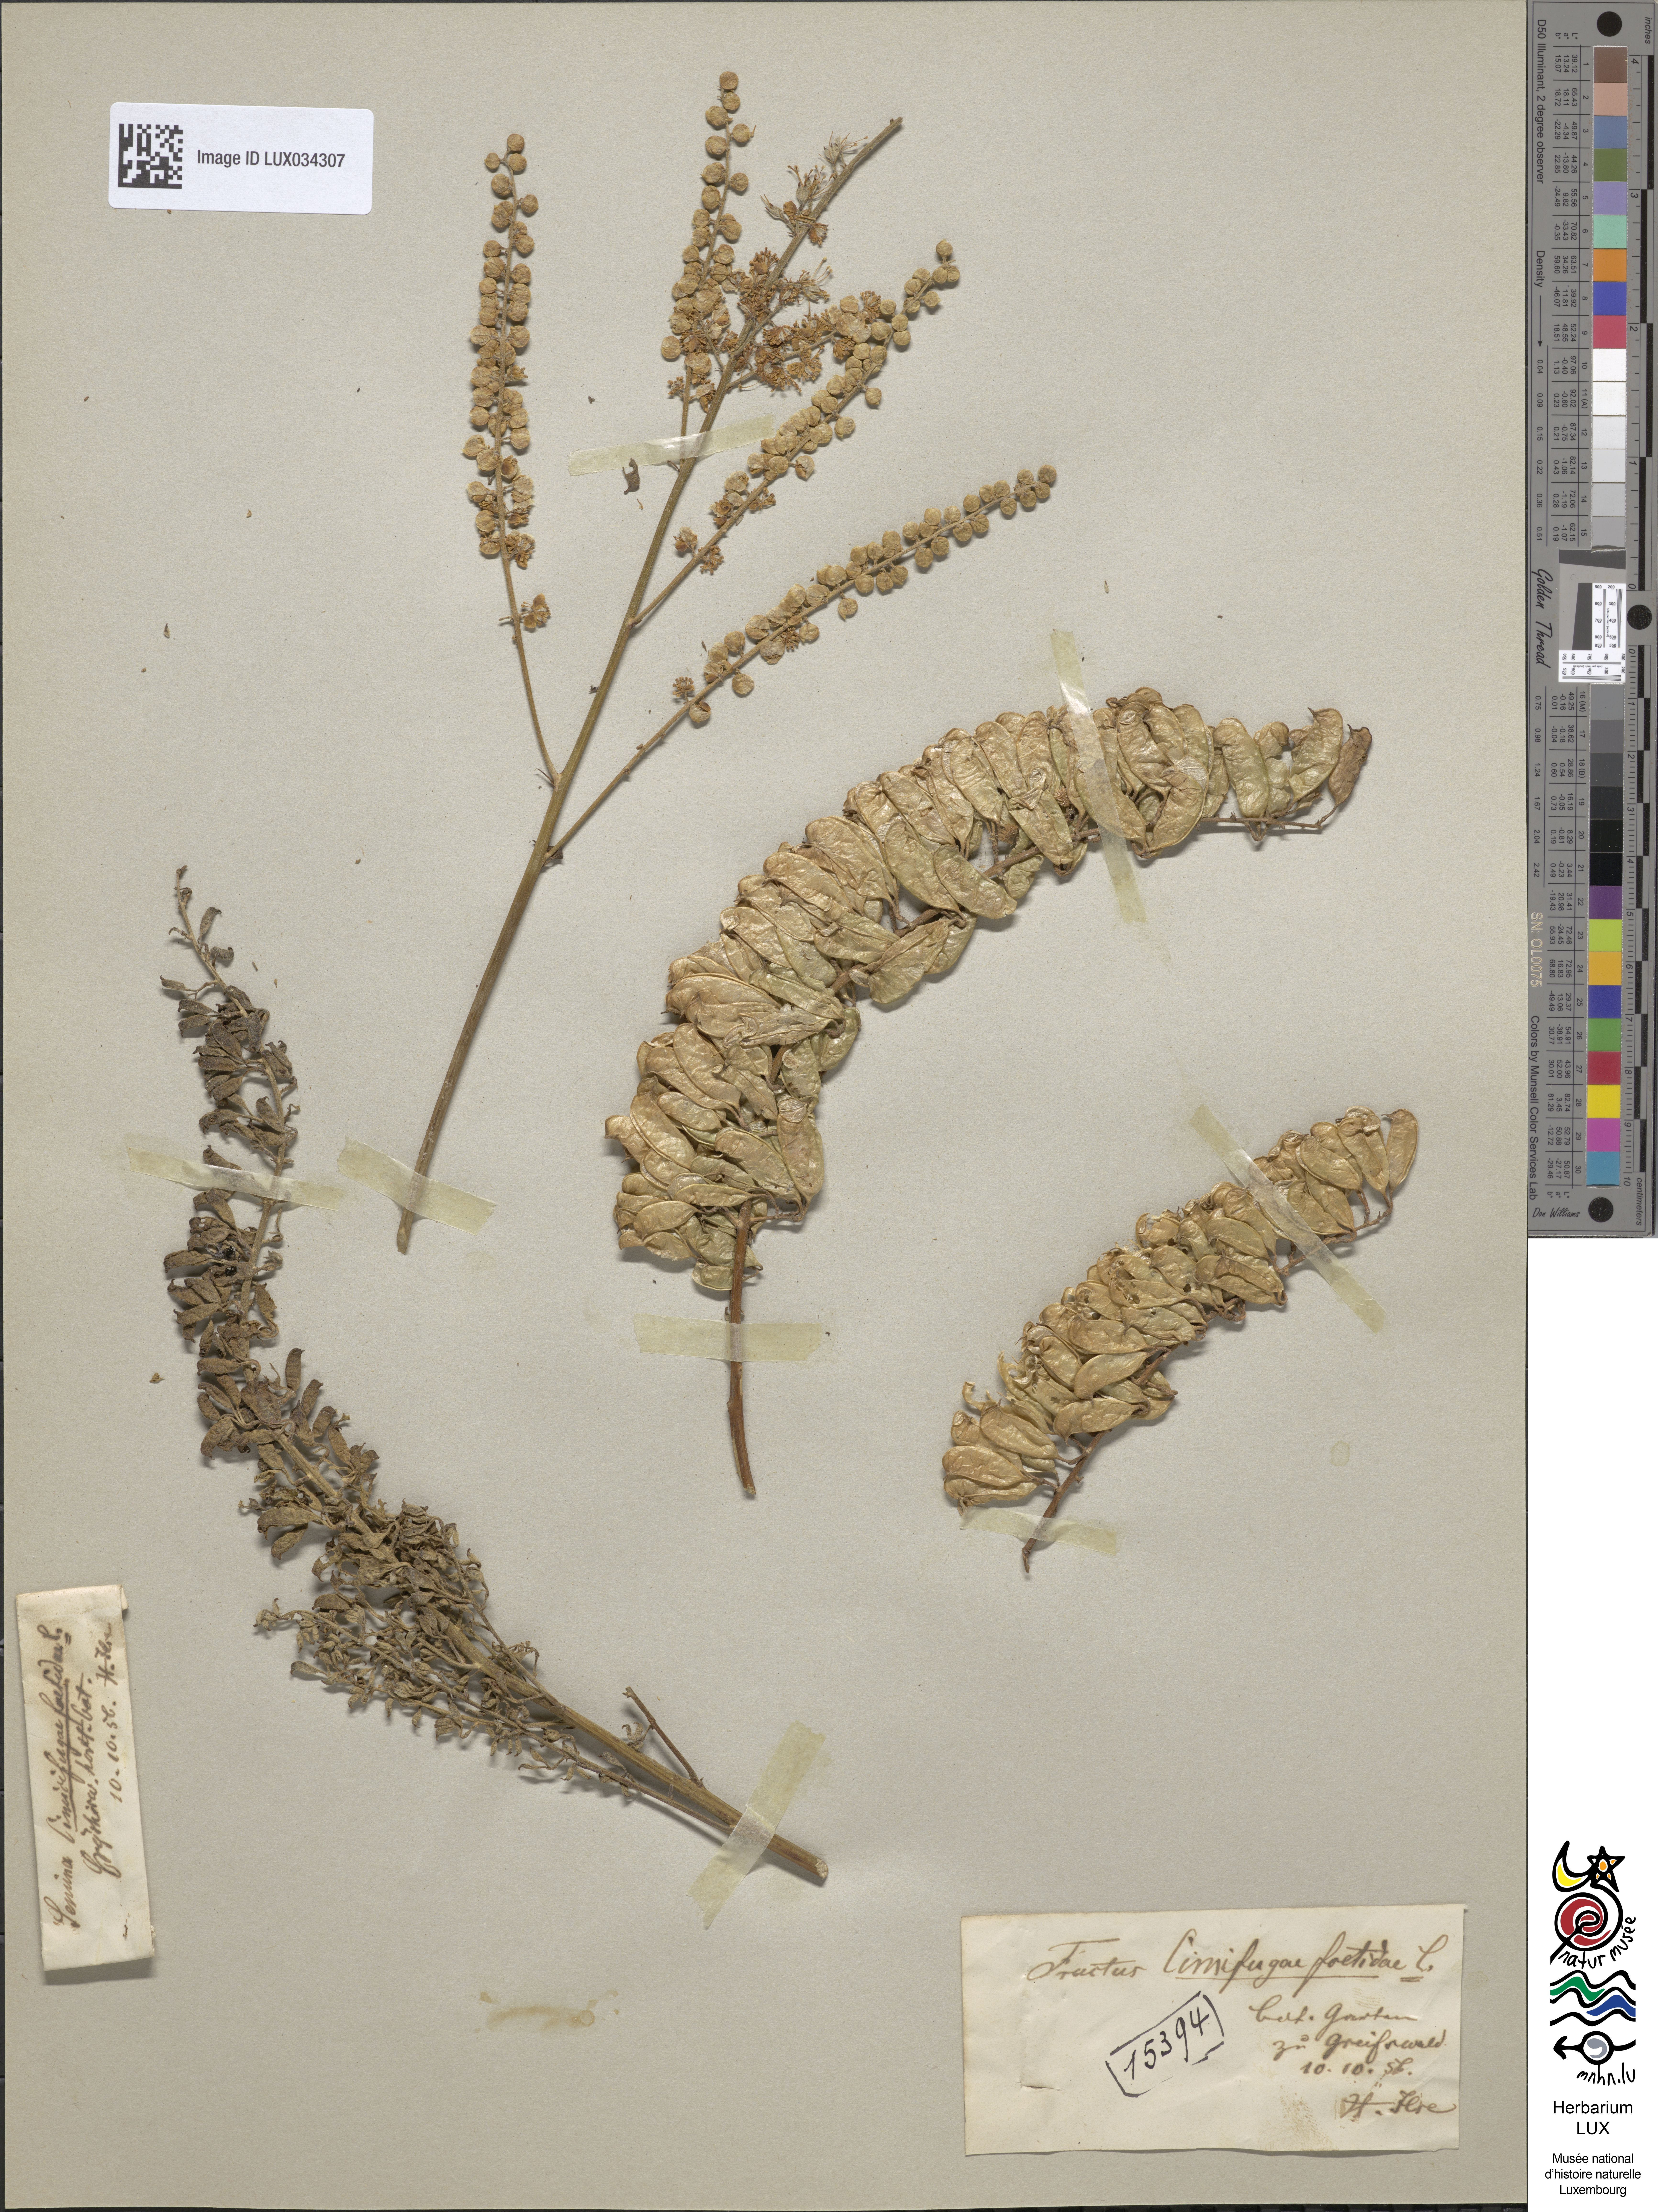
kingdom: Plantae
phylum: Tracheophyta
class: Magnoliopsida
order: Ranunculales
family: Ranunculaceae
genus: Actaea
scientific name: Actaea cimicifuga
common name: Chinese cimicifuga
